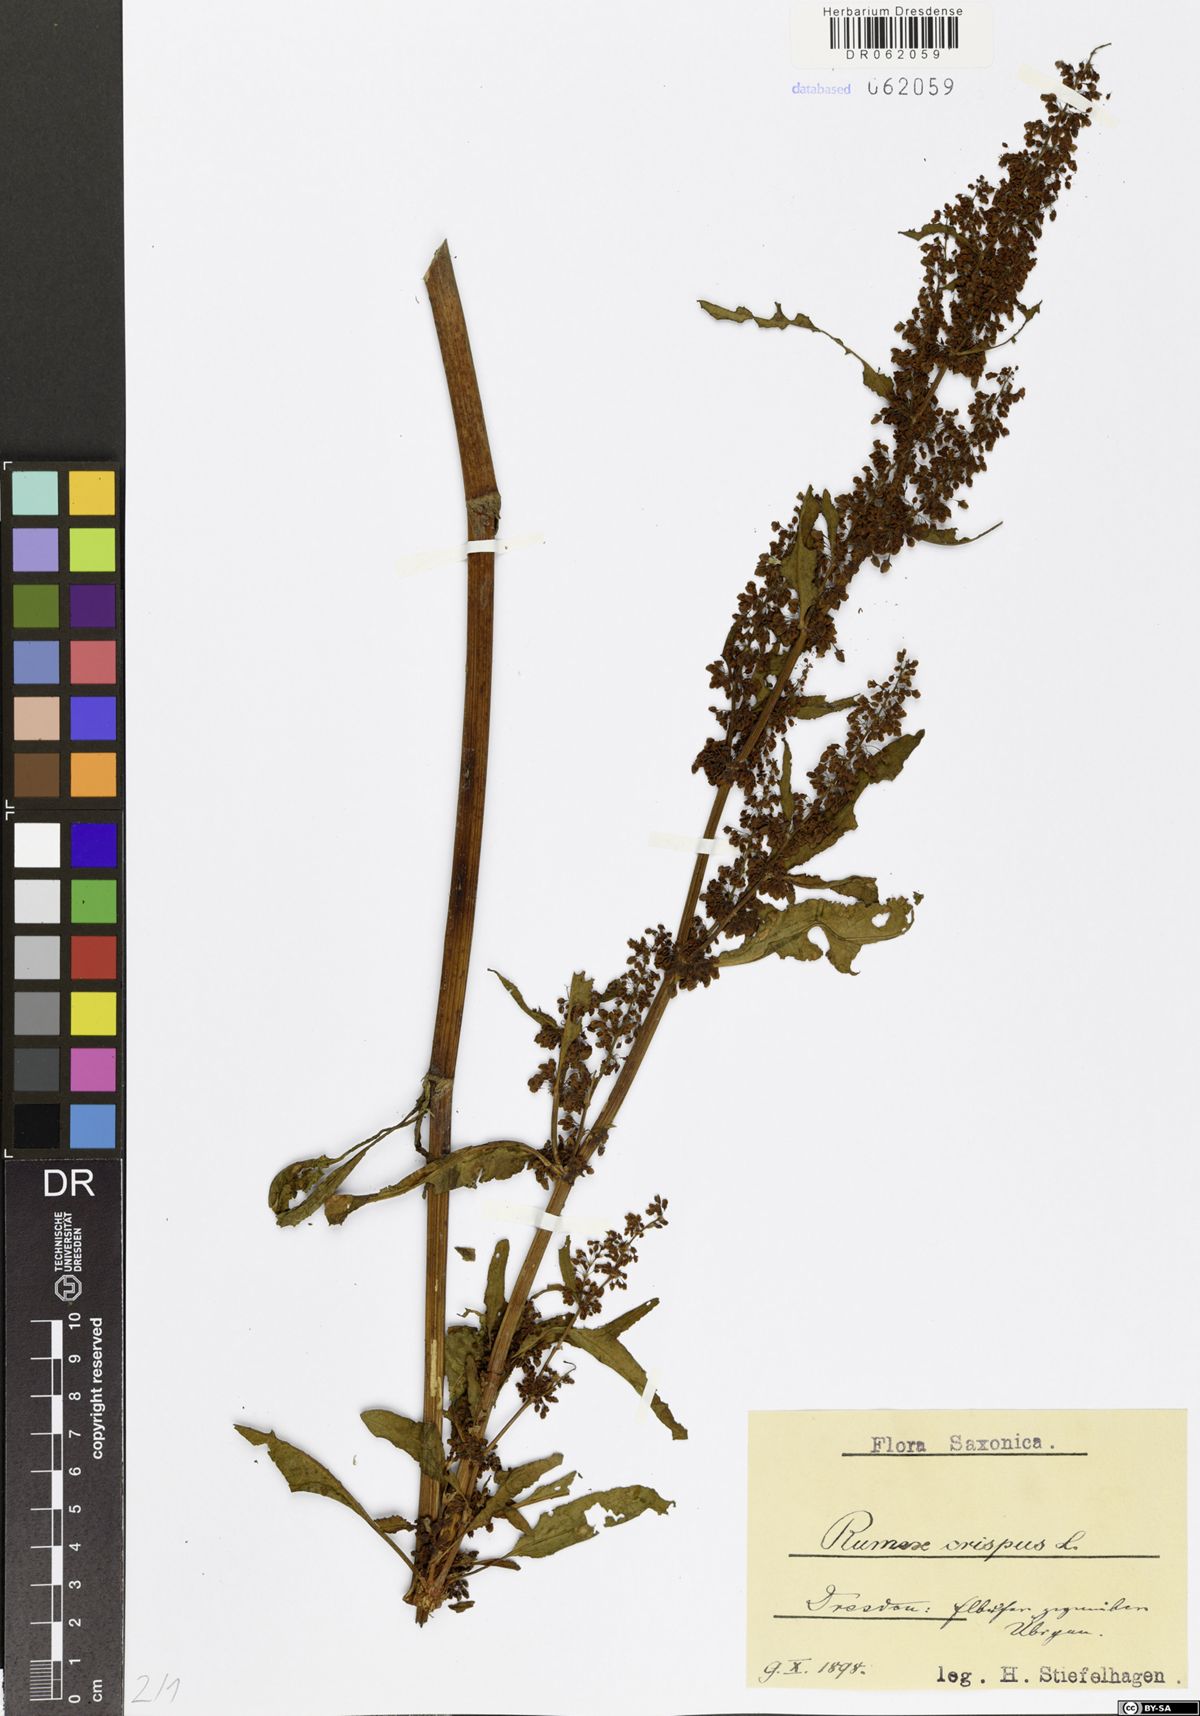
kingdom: Plantae
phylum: Tracheophyta
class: Magnoliopsida
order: Caryophyllales
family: Polygonaceae
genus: Rumex
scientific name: Rumex crispus
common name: Curled dock
